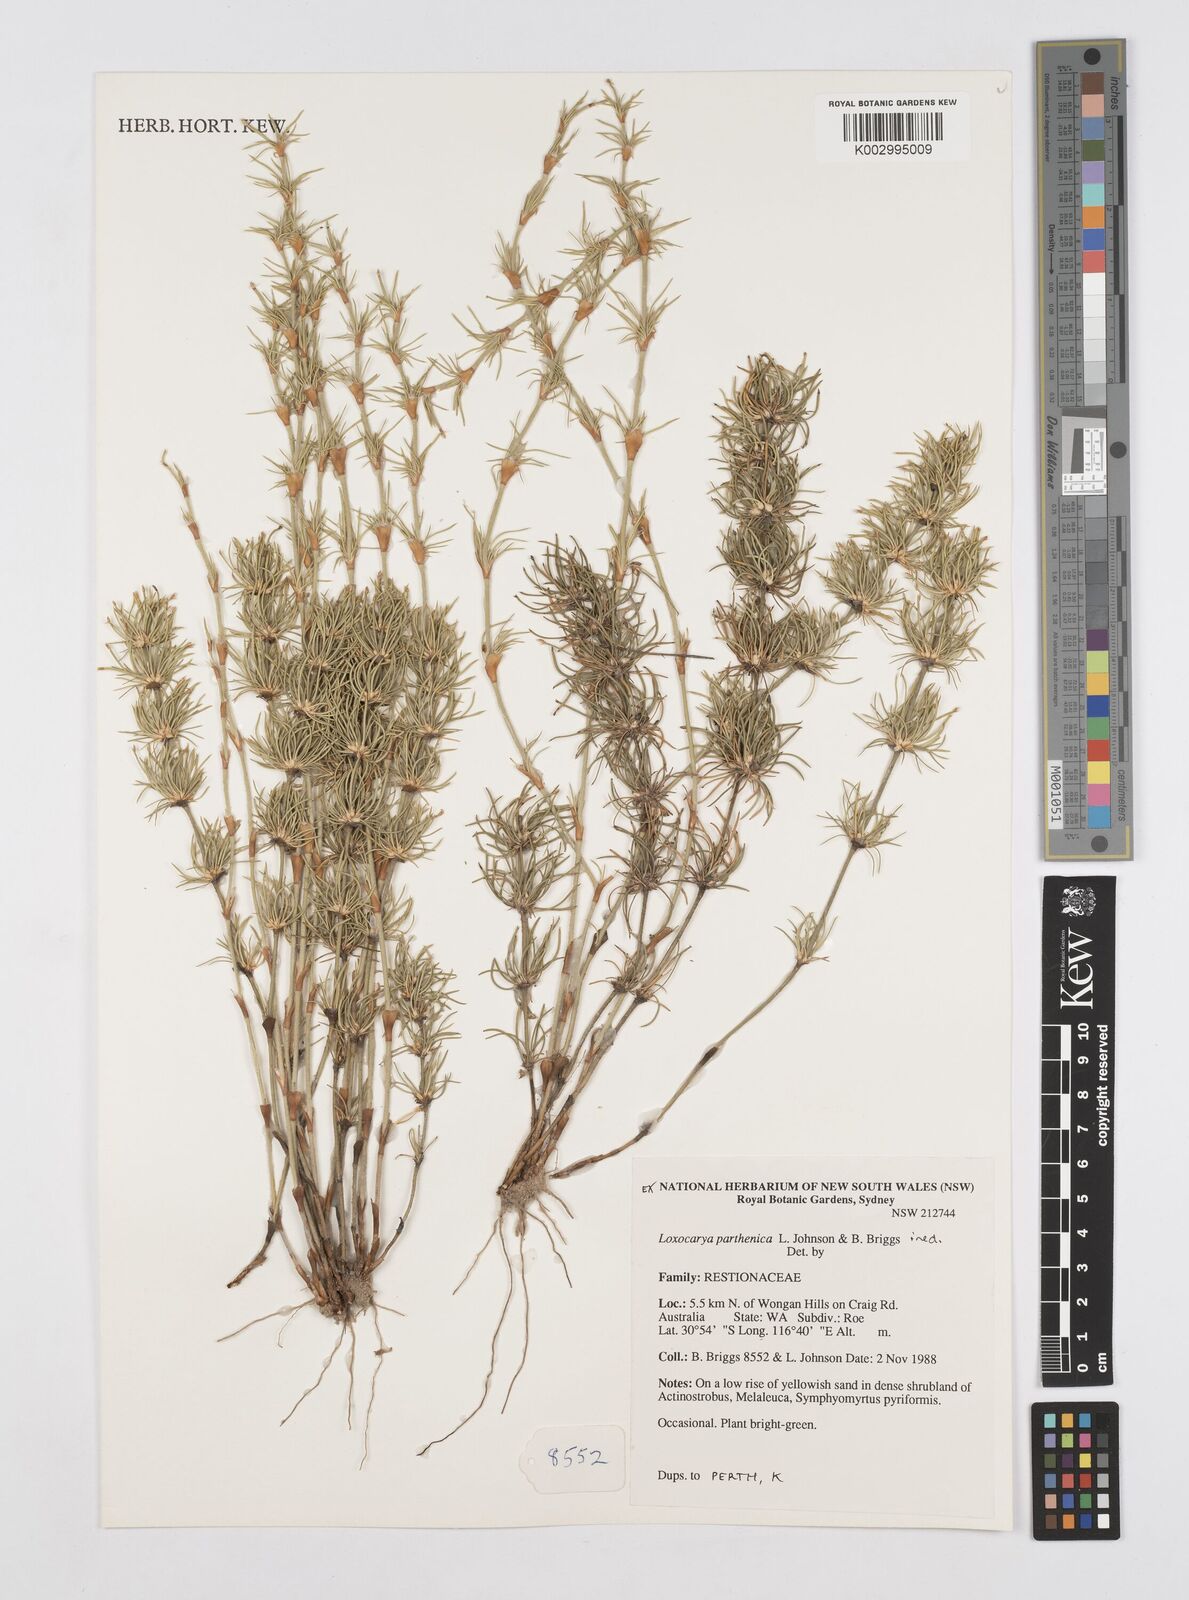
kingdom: Plantae
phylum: Tracheophyta
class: Liliopsida
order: Poales
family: Restionaceae
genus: Desmocladus
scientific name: Desmocladus parthenicus
